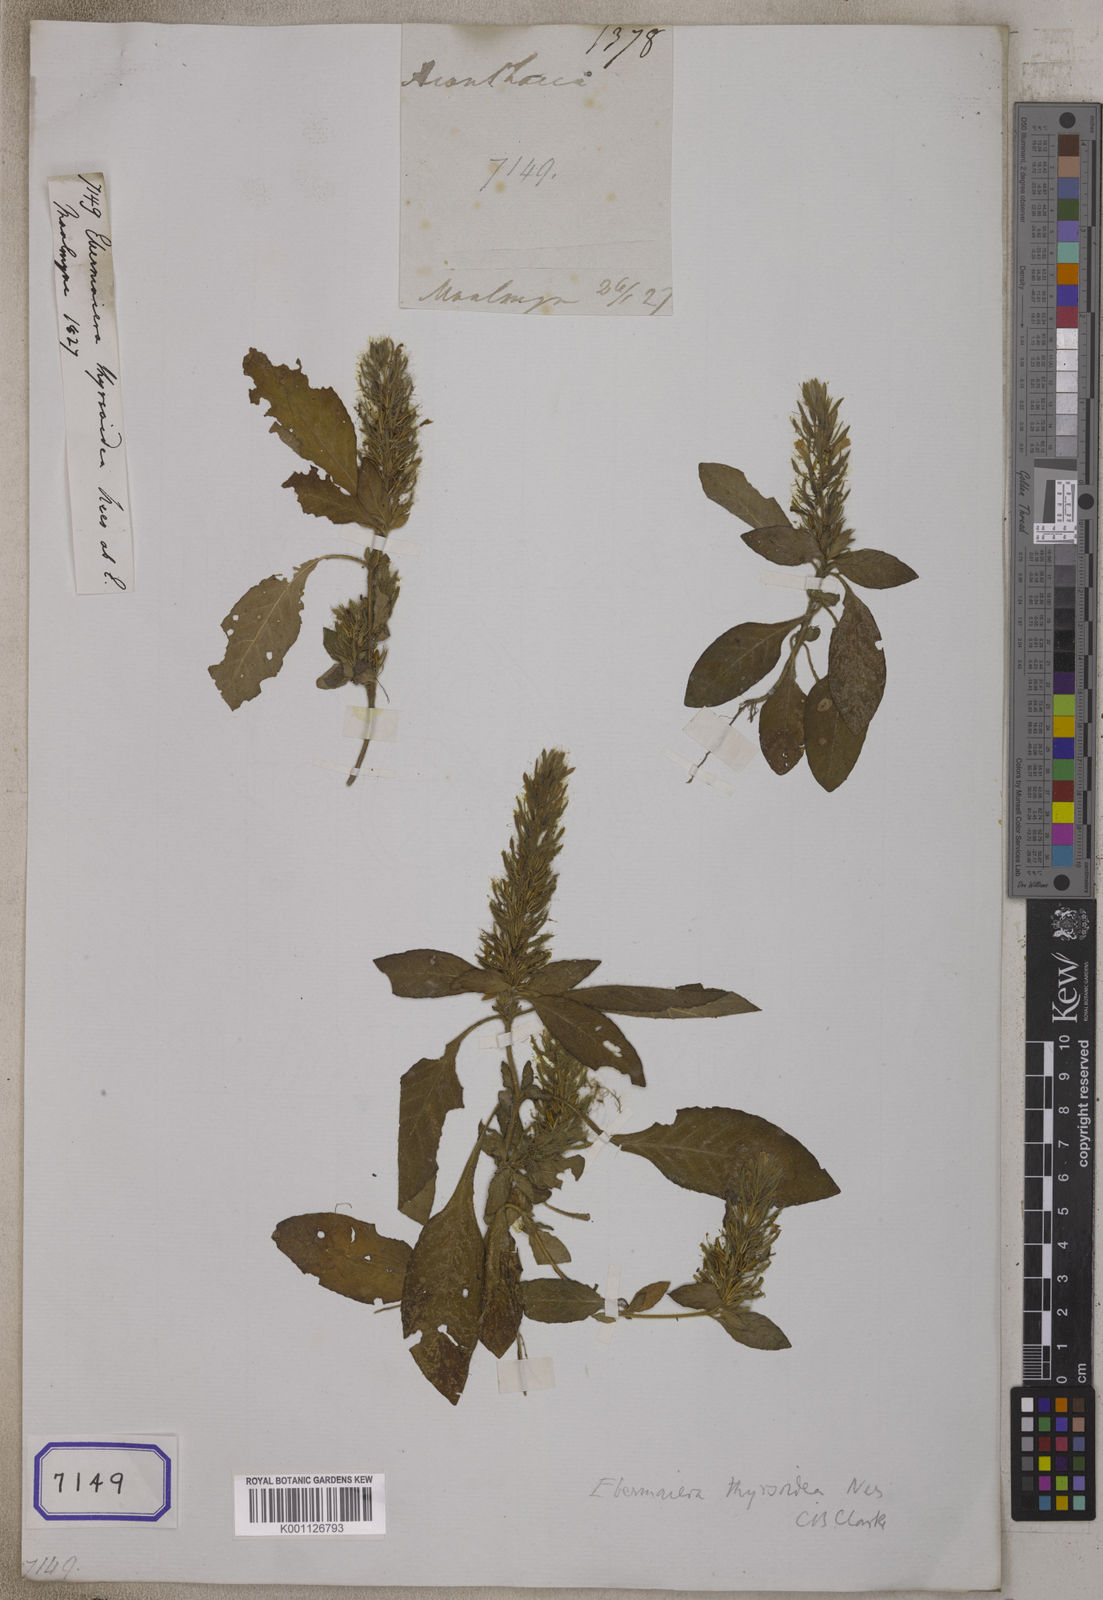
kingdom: Plantae
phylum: Tracheophyta
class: Magnoliopsida
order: Lamiales
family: Acanthaceae
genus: Staurogyne
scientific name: Staurogyne thyrsoidea
